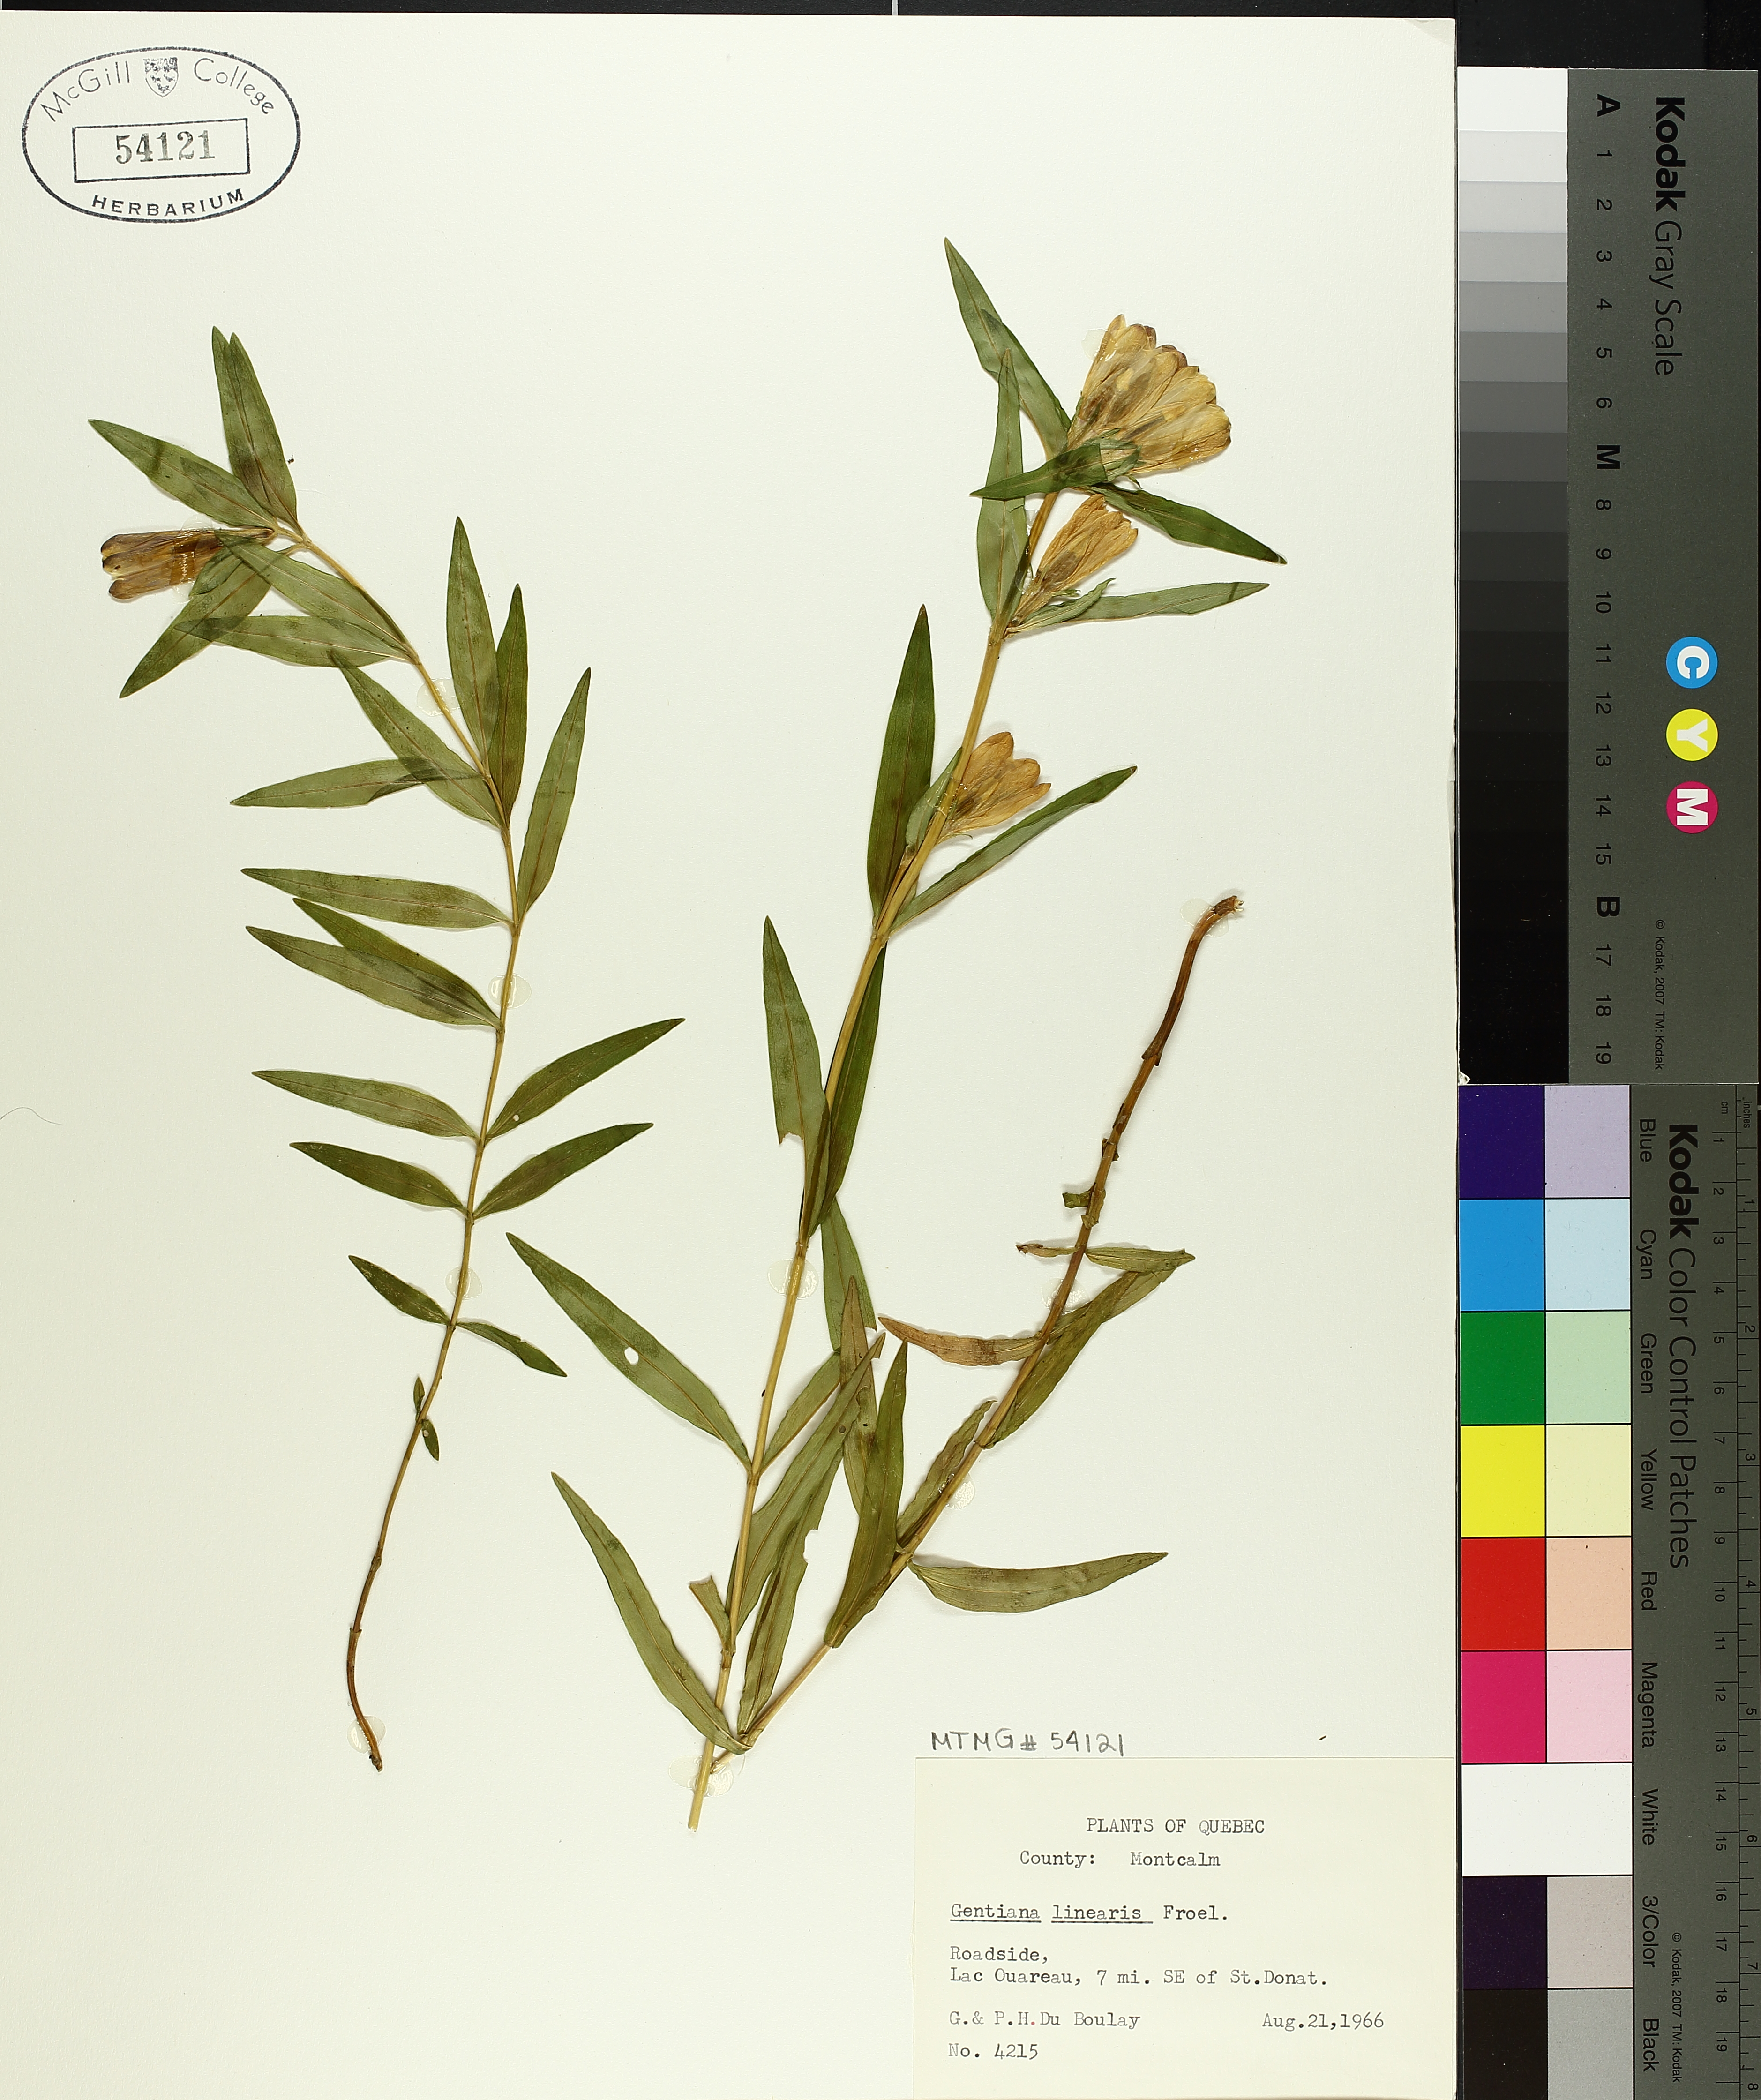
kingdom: Plantae
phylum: Tracheophyta
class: Magnoliopsida
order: Gentianales
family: Gentianaceae
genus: Gentiana
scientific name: Gentiana linearis
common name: Bastard gentian
